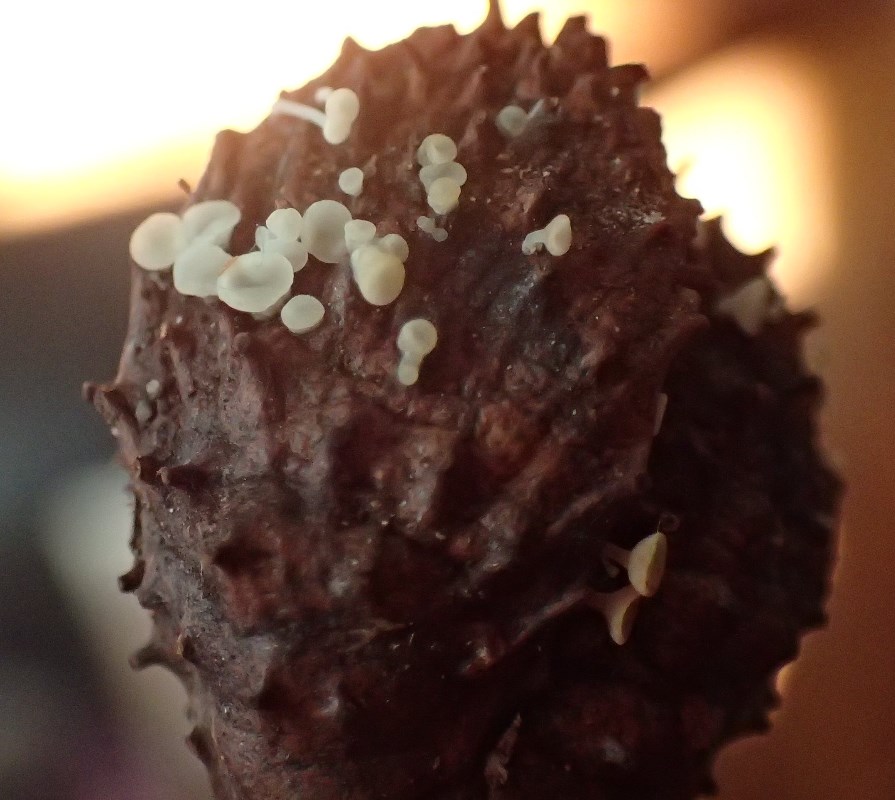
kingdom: Fungi
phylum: Ascomycota
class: Leotiomycetes
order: Helotiales
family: Helotiaceae
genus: Hymenoscyphus
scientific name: Hymenoscyphus fagineus
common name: vellugtende stilkskive
